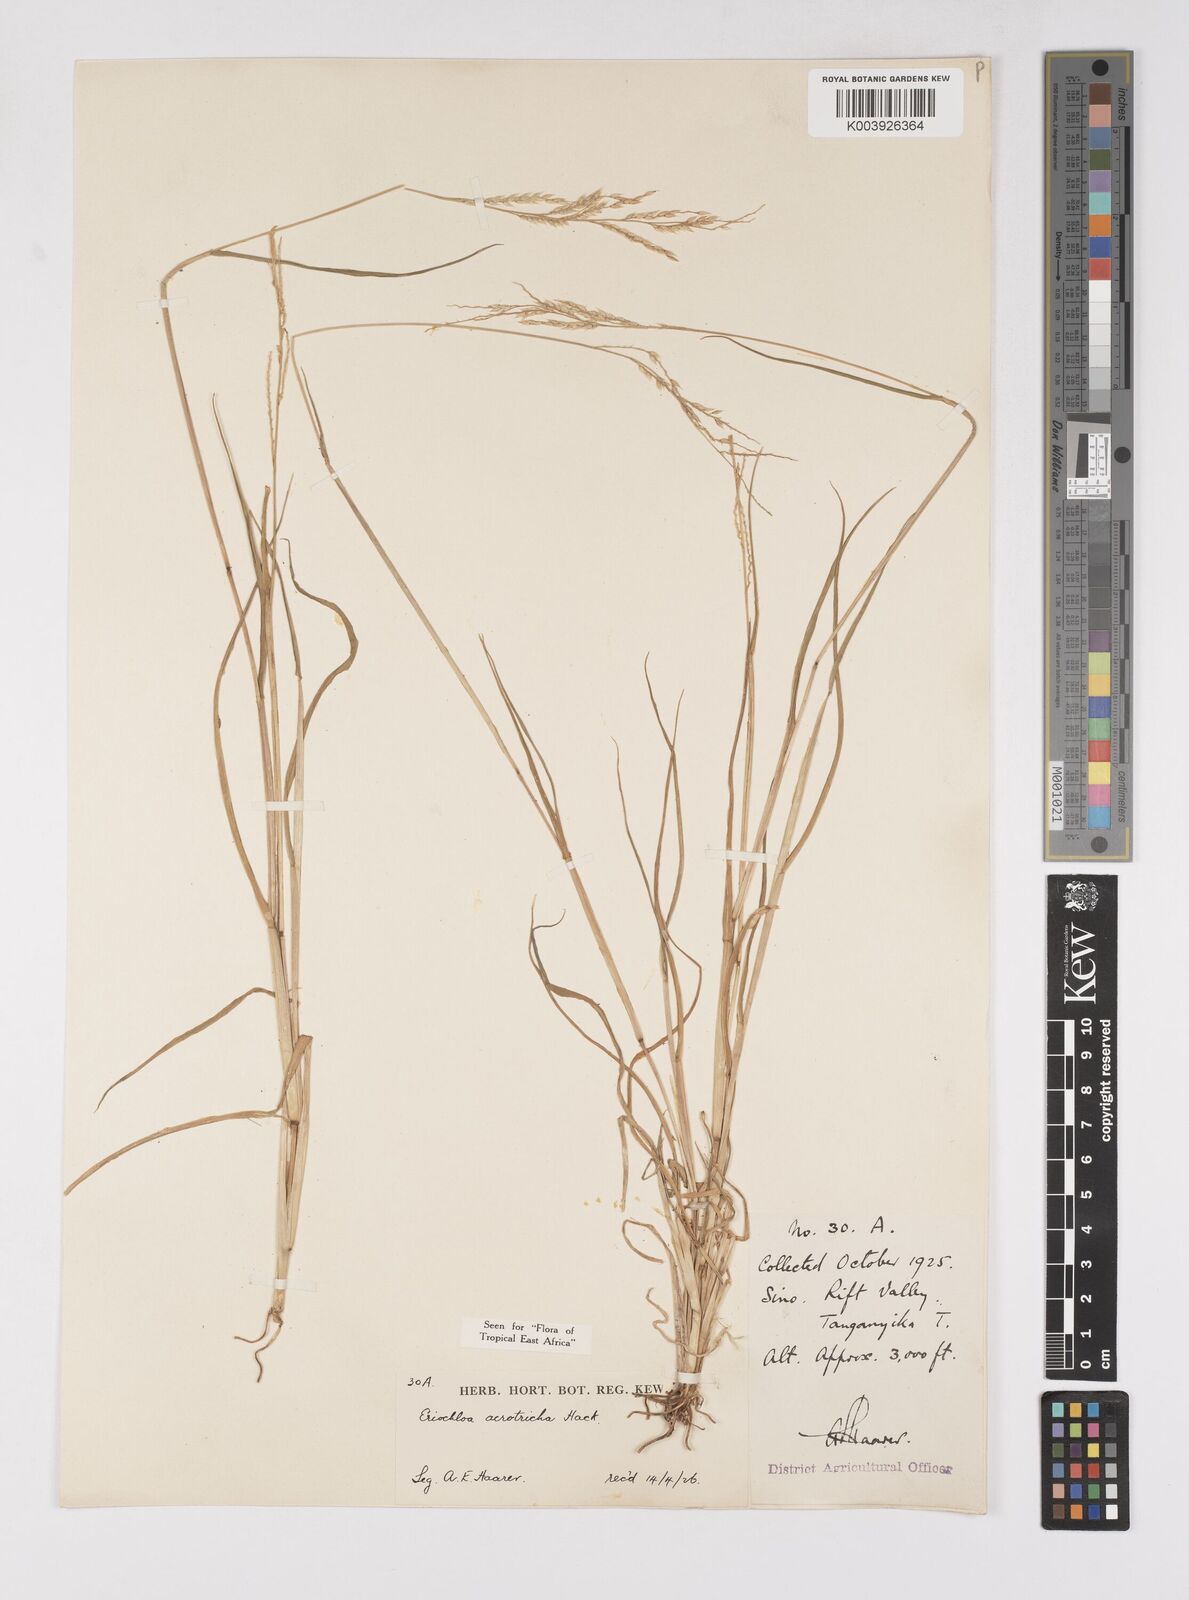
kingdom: Plantae
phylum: Tracheophyta
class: Liliopsida
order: Poales
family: Poaceae
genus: Eriochloa
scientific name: Eriochloa barbatus
